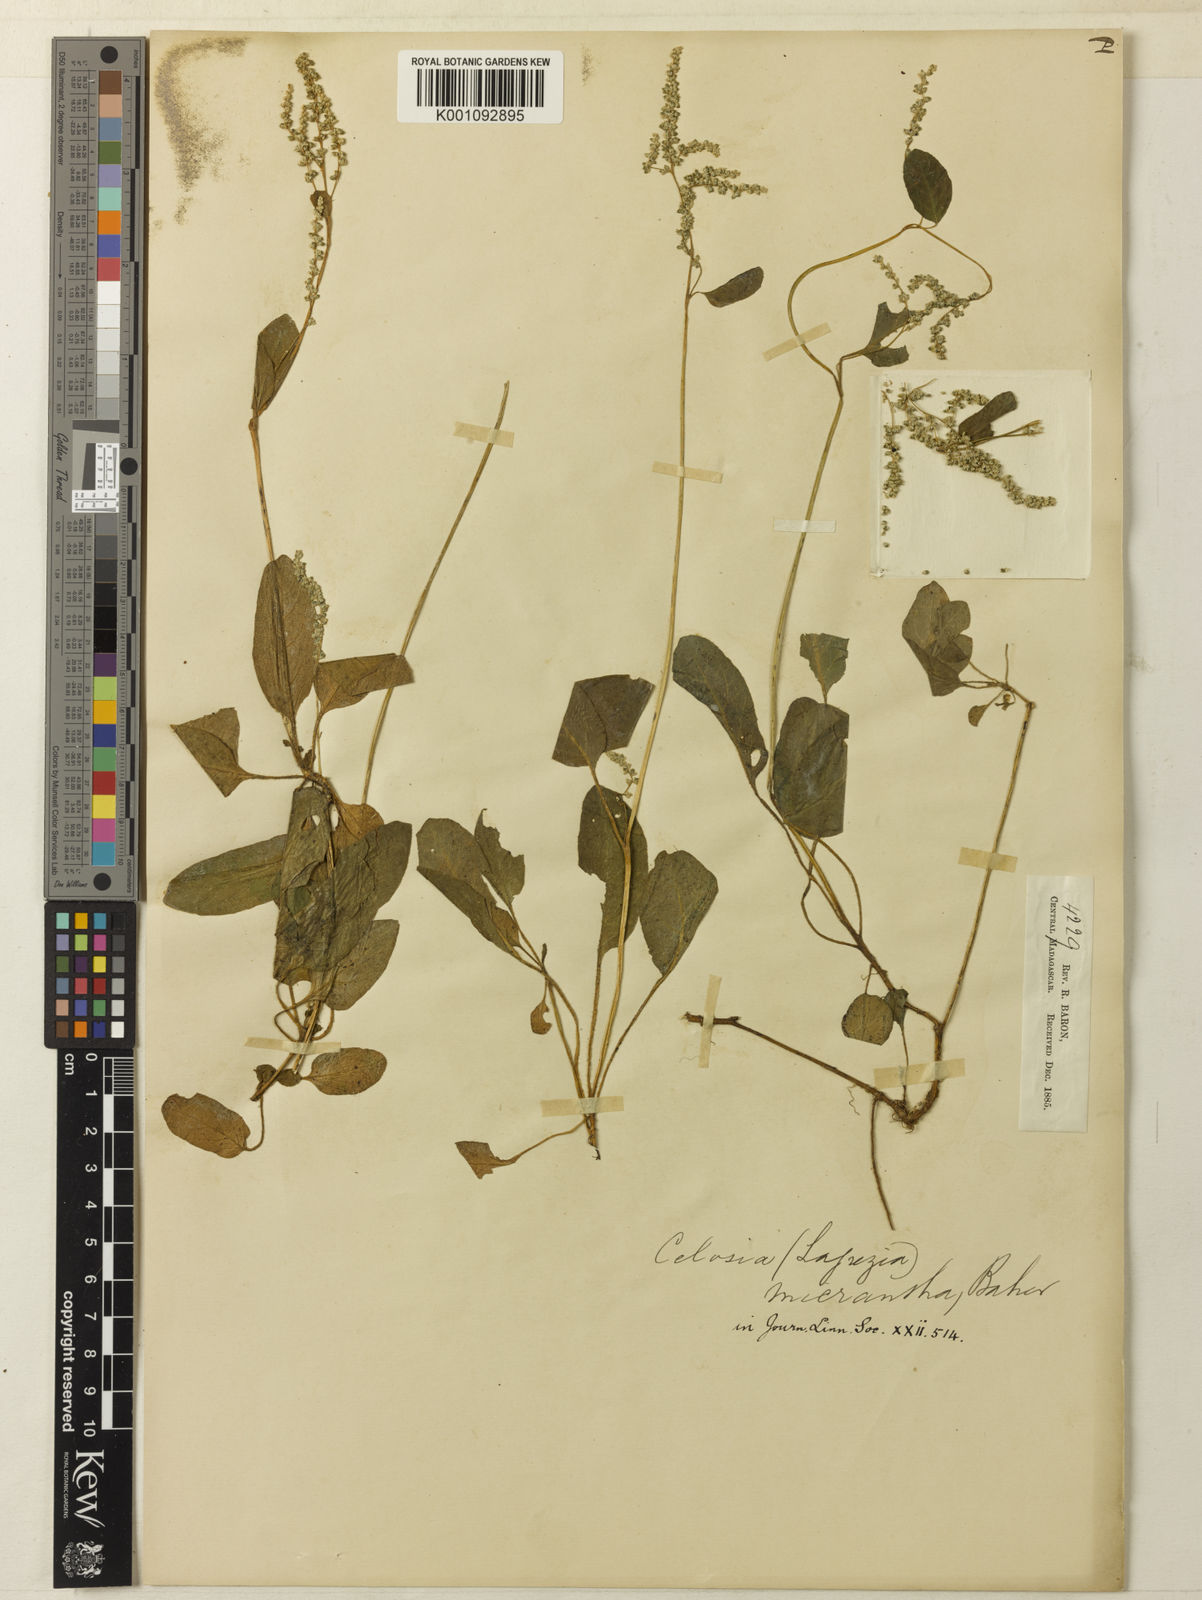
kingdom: Plantae
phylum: Tracheophyta
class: Magnoliopsida
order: Caryophyllales
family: Amaranthaceae
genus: Lagrezia
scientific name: Lagrezia micrantha
